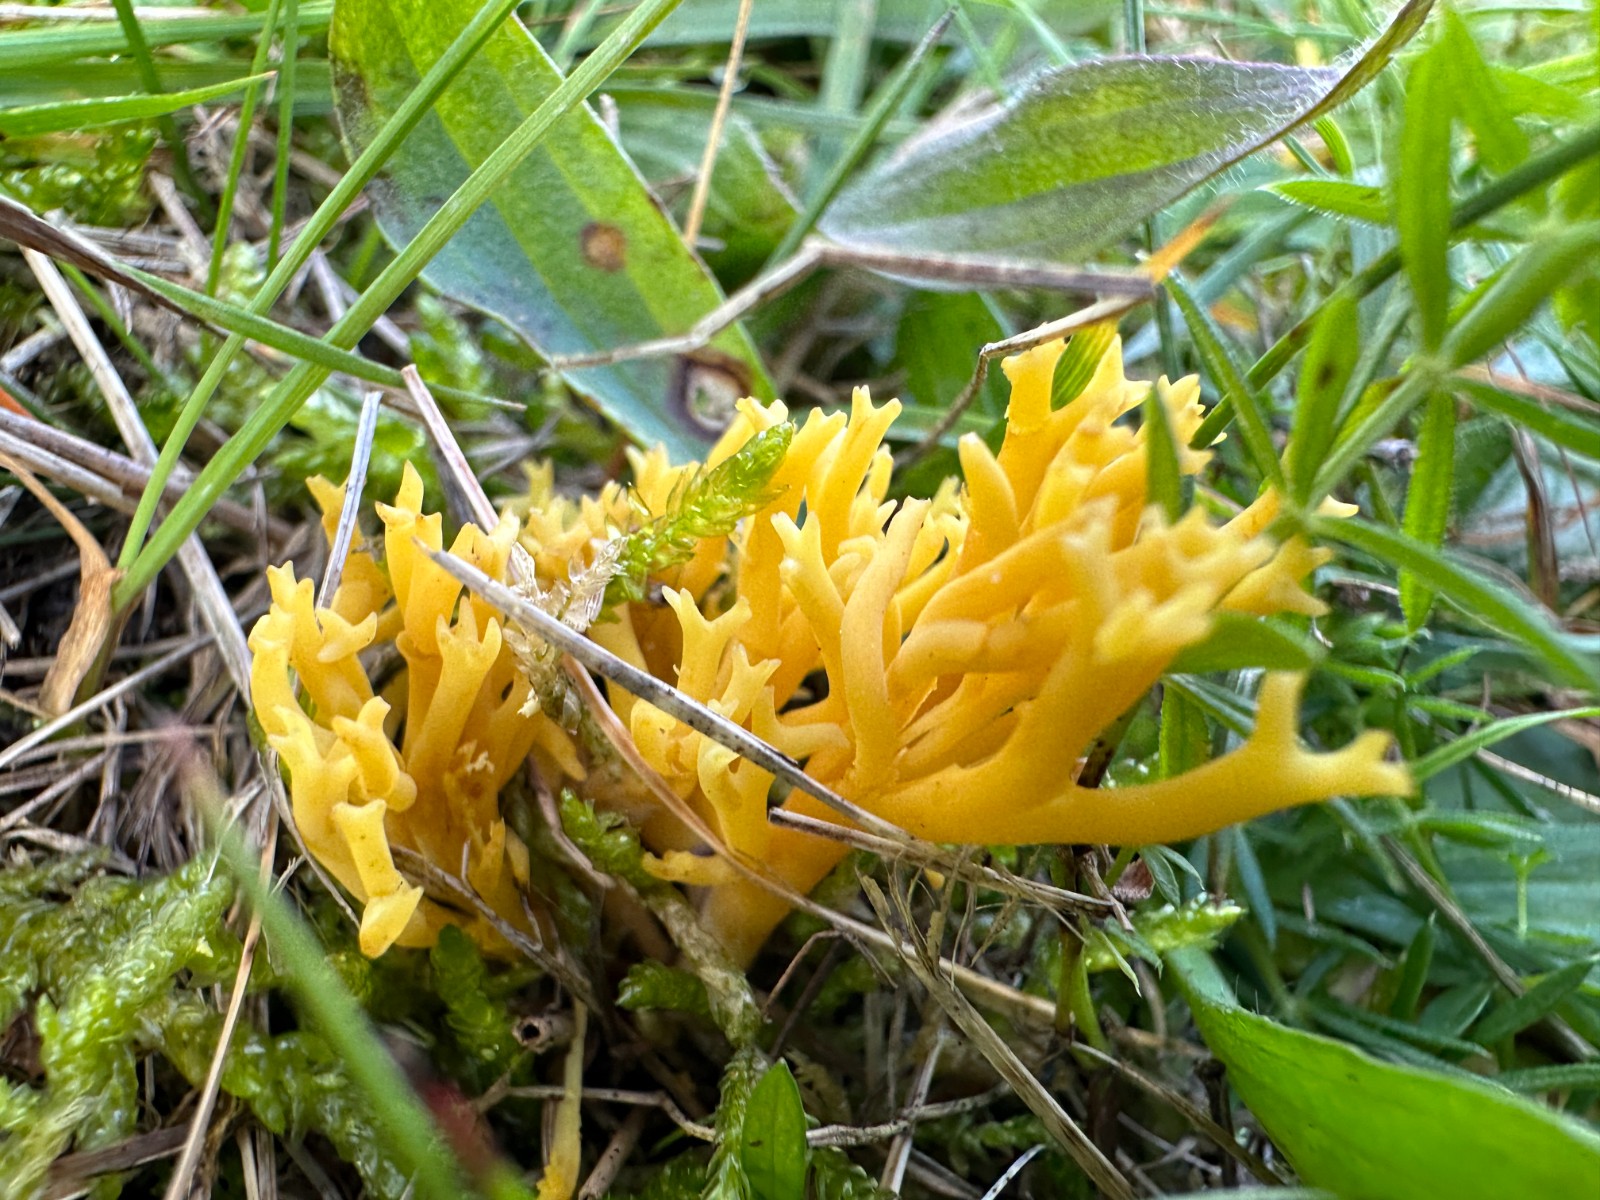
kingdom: Fungi
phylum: Basidiomycota
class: Agaricomycetes
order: Agaricales
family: Clavariaceae
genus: Clavulinopsis
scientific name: Clavulinopsis corniculata
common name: eng-køllesvamp
